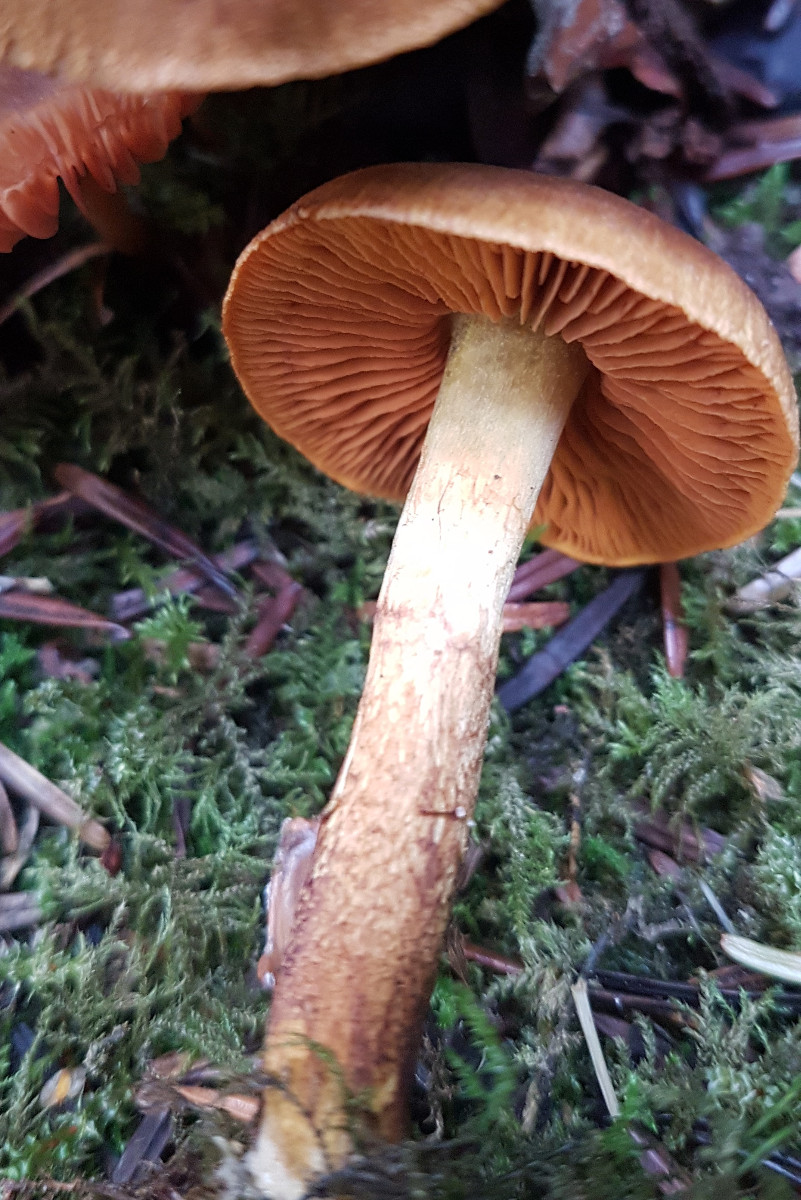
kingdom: Fungi
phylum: Basidiomycota
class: Agaricomycetes
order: Agaricales
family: Cortinariaceae
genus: Cortinarius
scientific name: Cortinarius cinnamomeus
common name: kanel-slørhat
